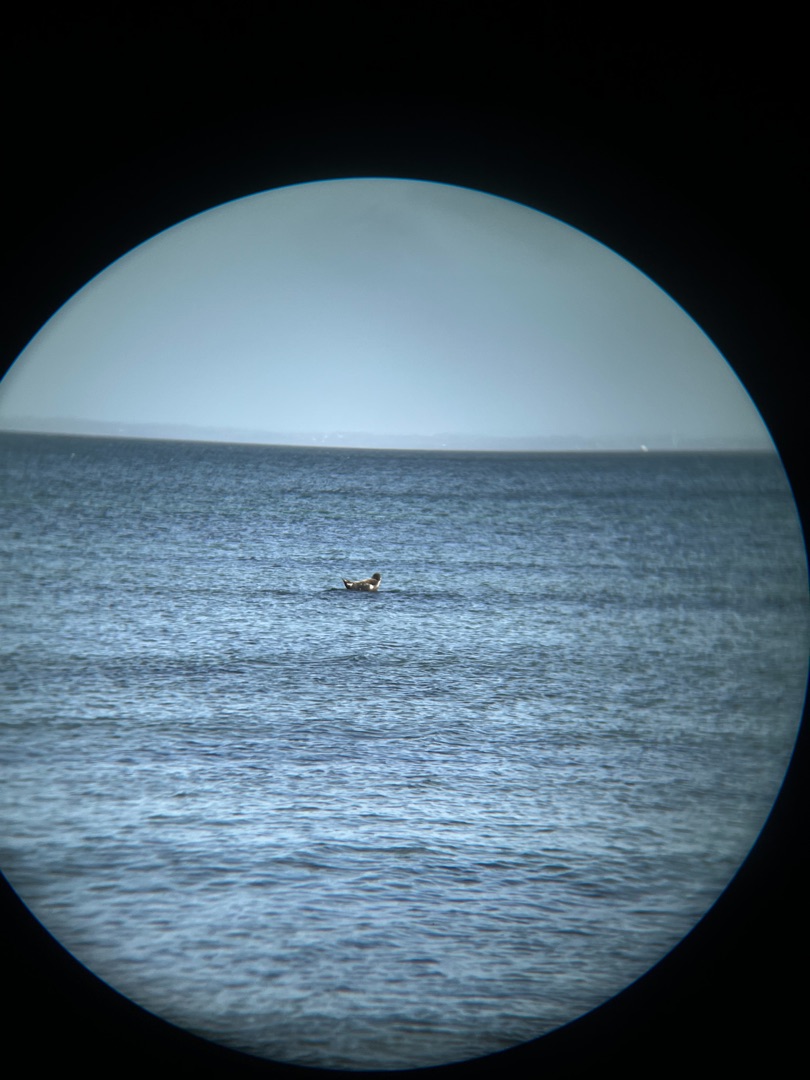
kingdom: Animalia
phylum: Chordata
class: Mammalia
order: Carnivora
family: Phocidae
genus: Phoca
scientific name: Phoca vitulina
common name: Spættet sæl
